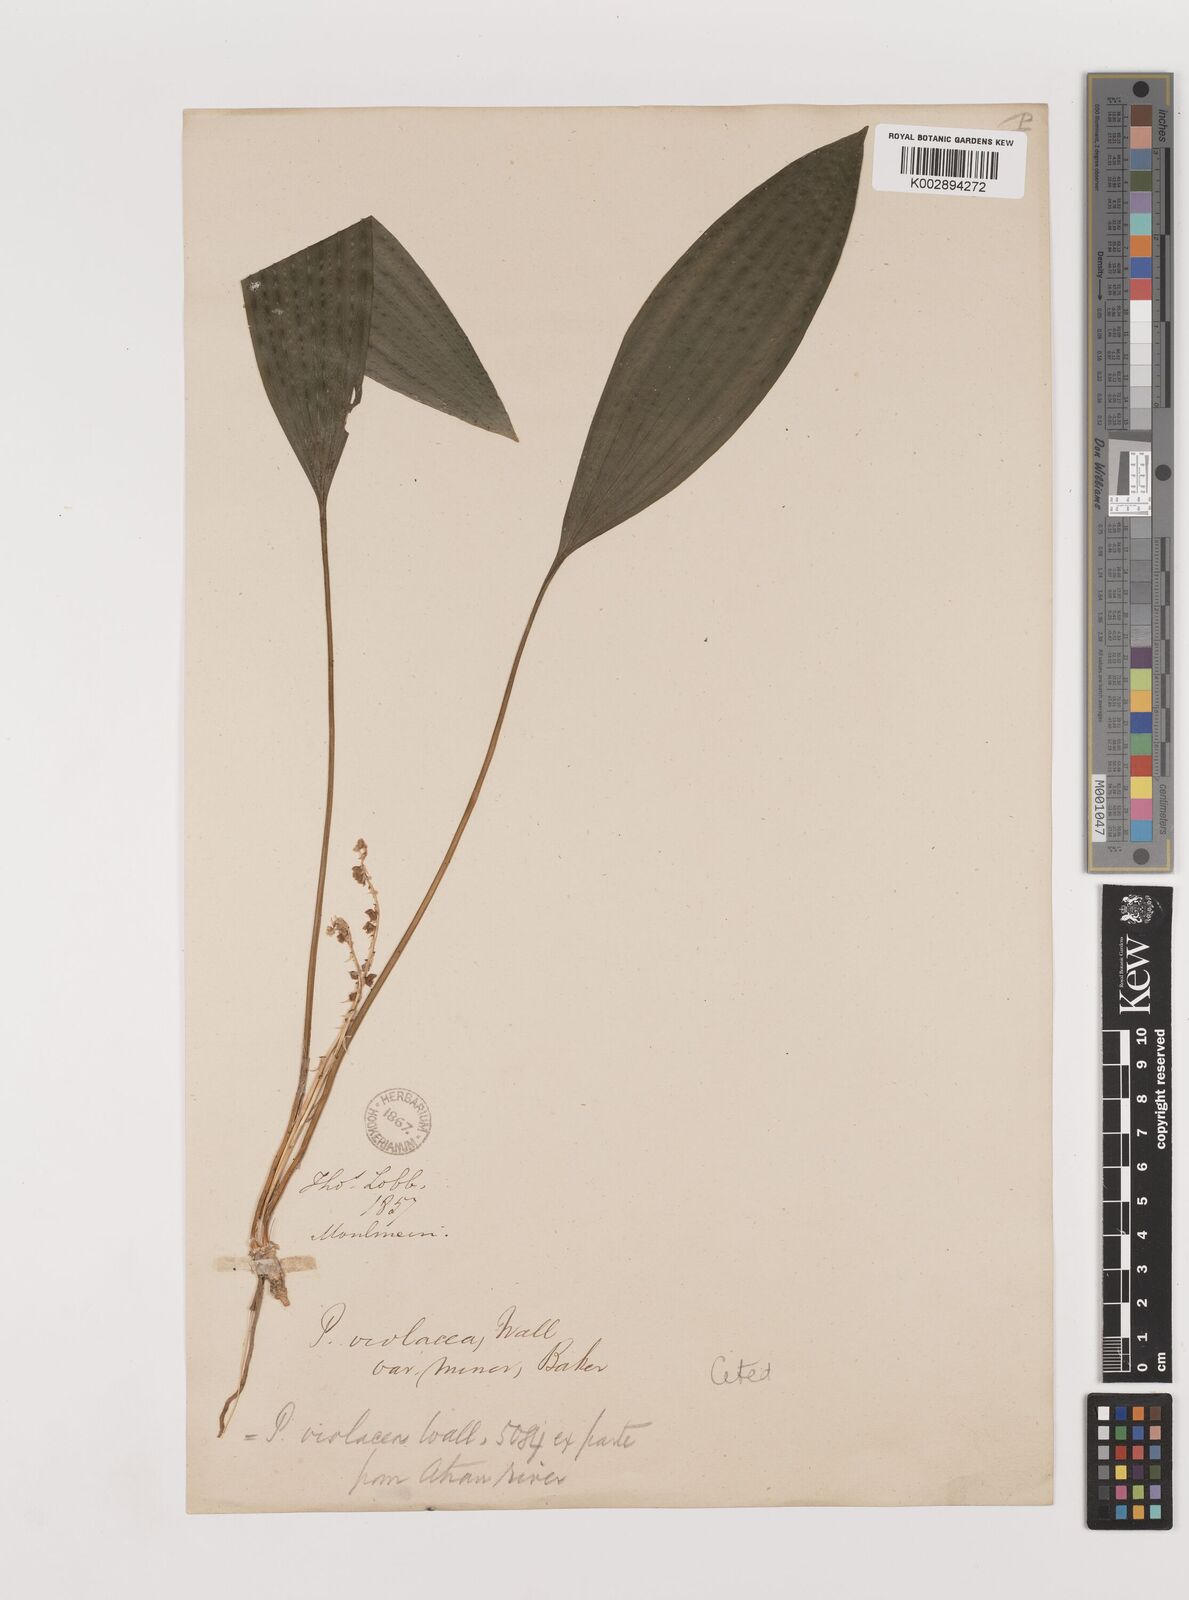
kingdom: Plantae
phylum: Tracheophyta
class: Liliopsida
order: Asparagales
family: Asparagaceae
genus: Peliosanthes
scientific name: Peliosanthes teta
